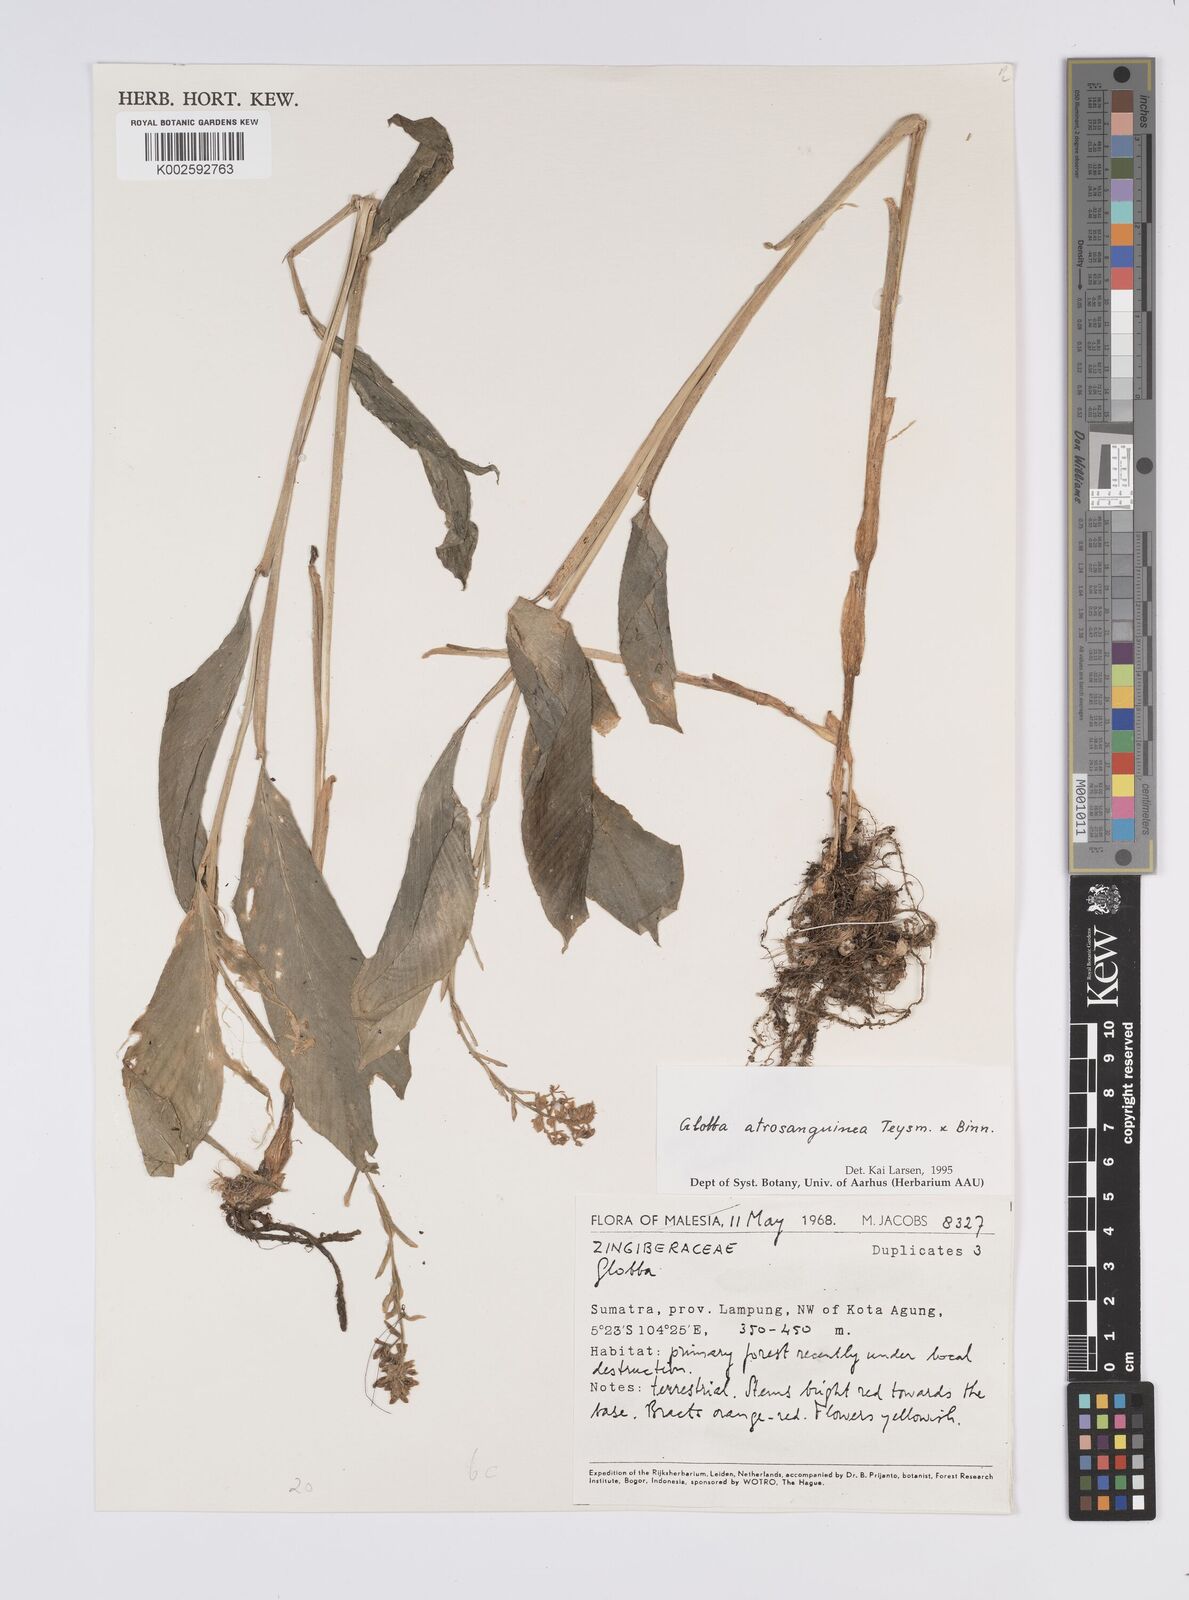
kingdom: Plantae
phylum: Tracheophyta
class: Liliopsida
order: Zingiberales
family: Zingiberaceae
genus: Globba
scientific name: Globba atrosanguinea
